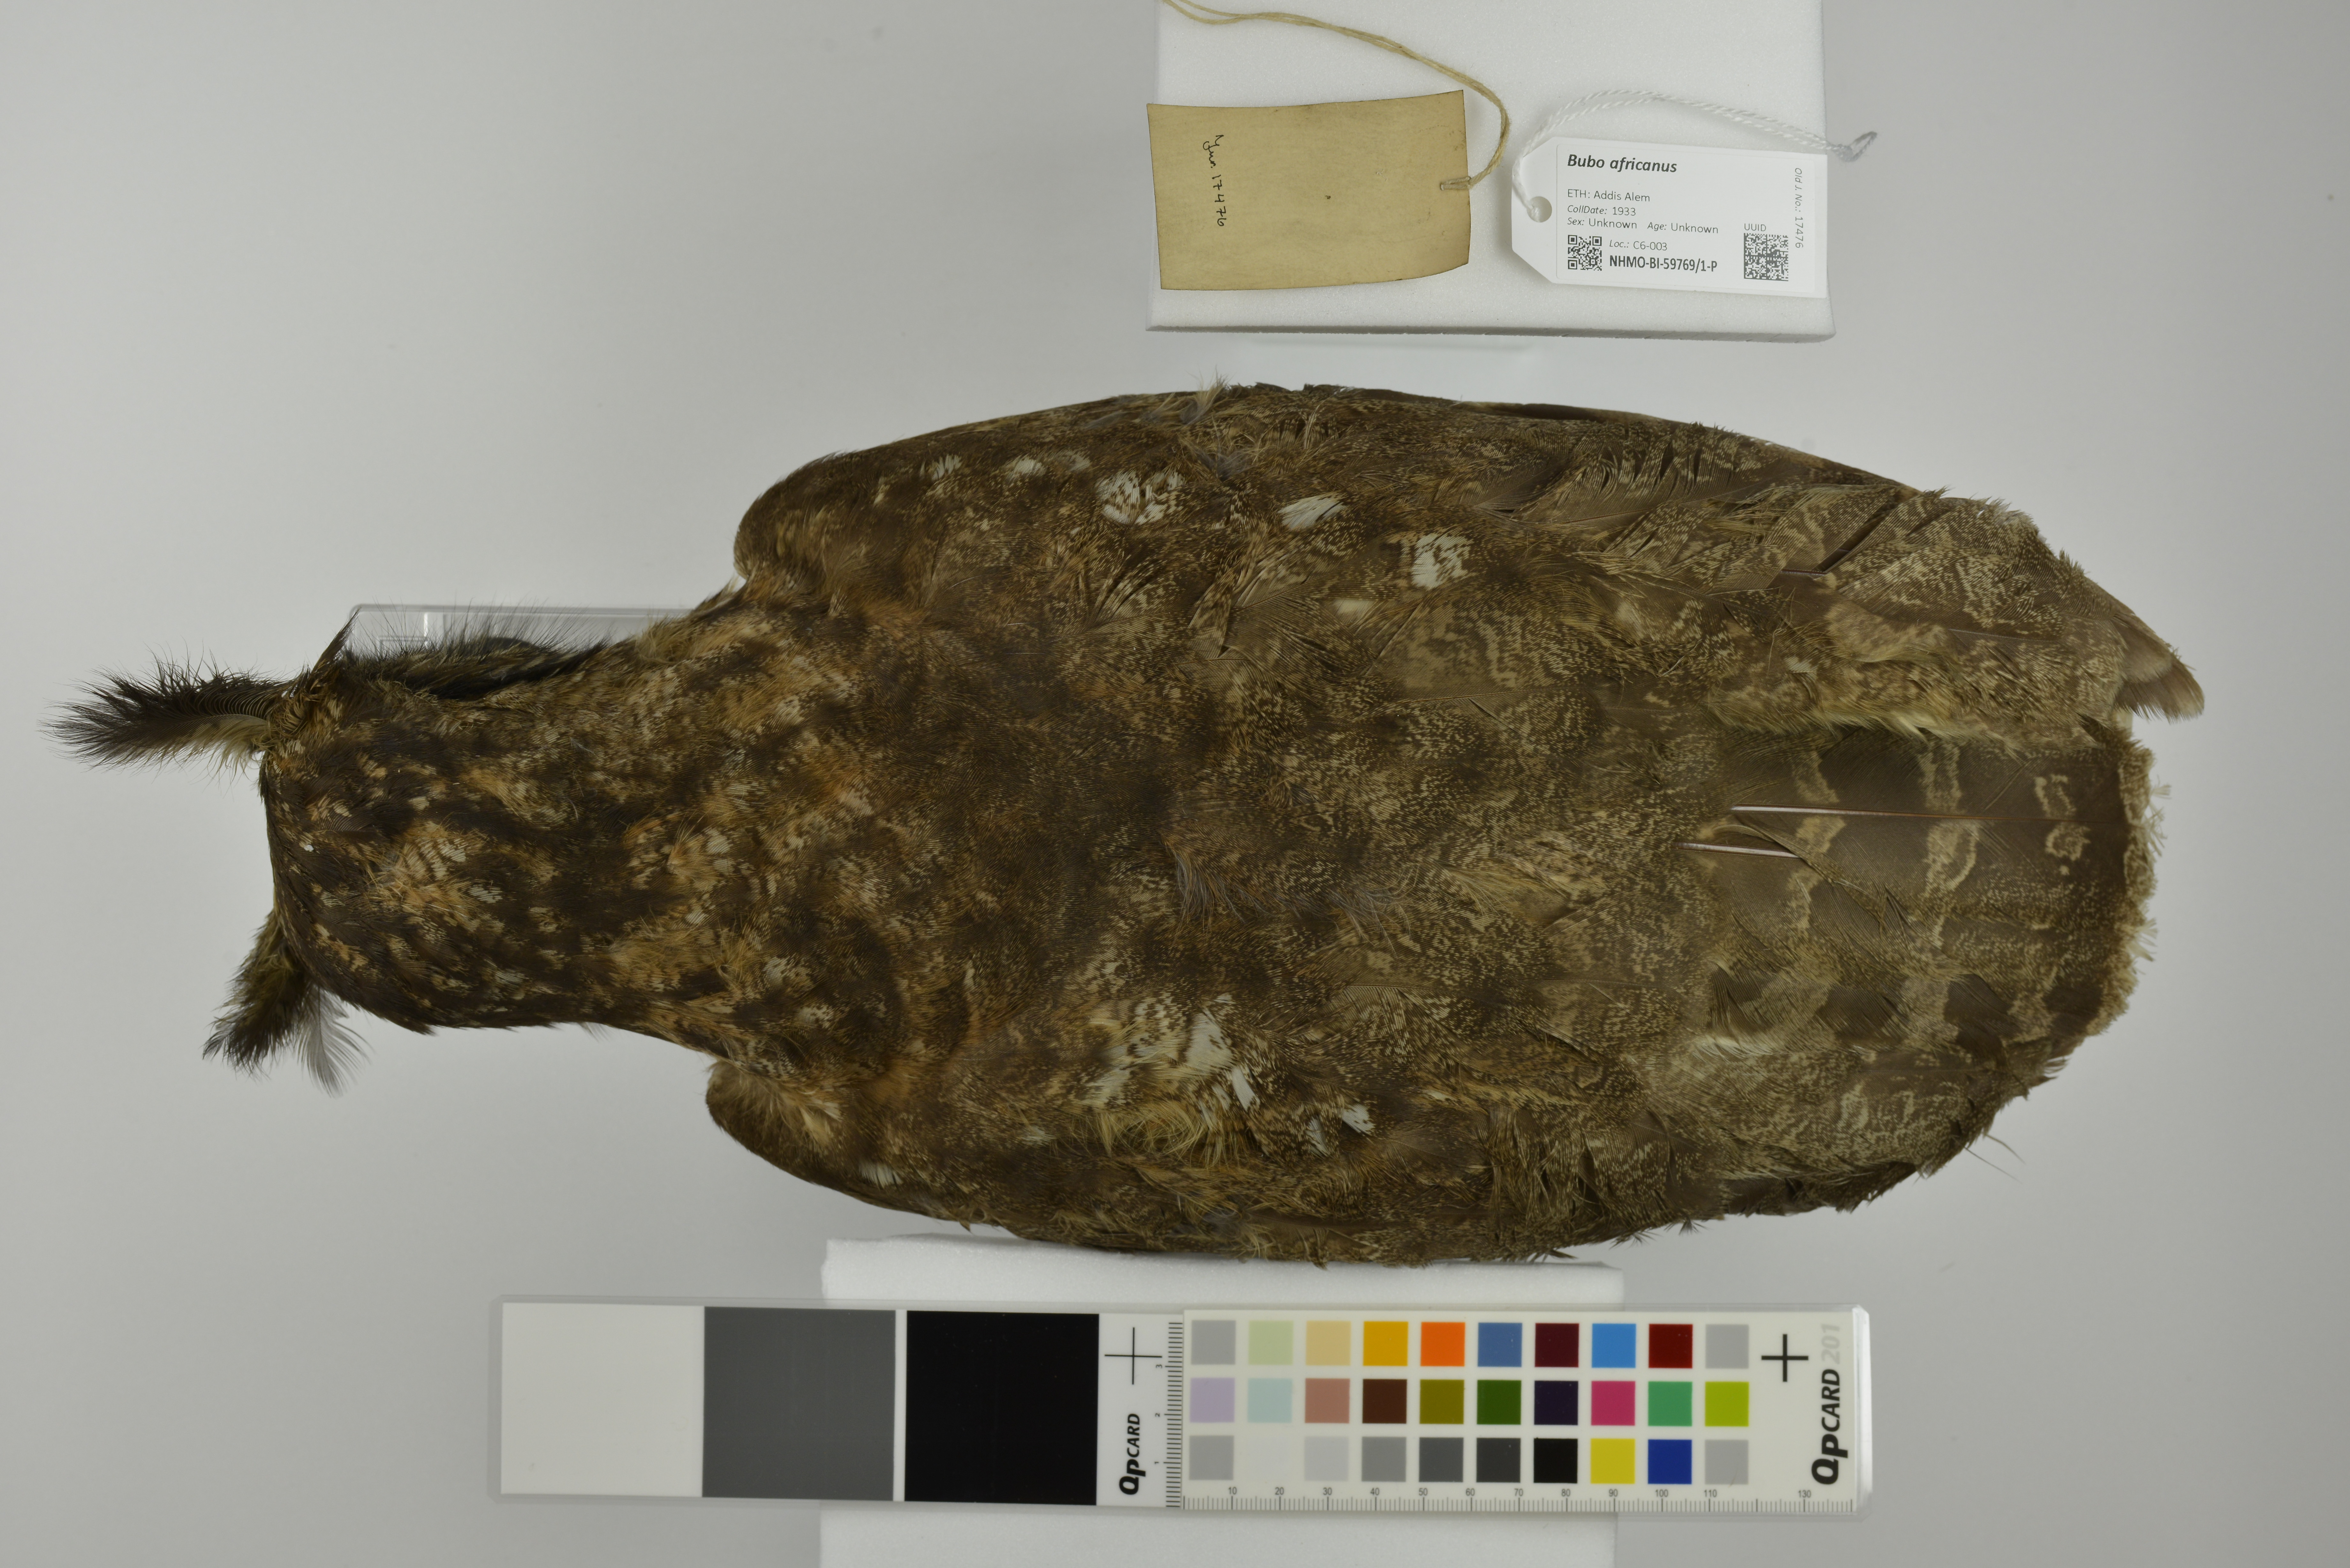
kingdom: Animalia
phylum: Chordata
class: Aves
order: Strigiformes
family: Strigidae
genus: Bubo
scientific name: Bubo africanus
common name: Spotted eagle-owl
